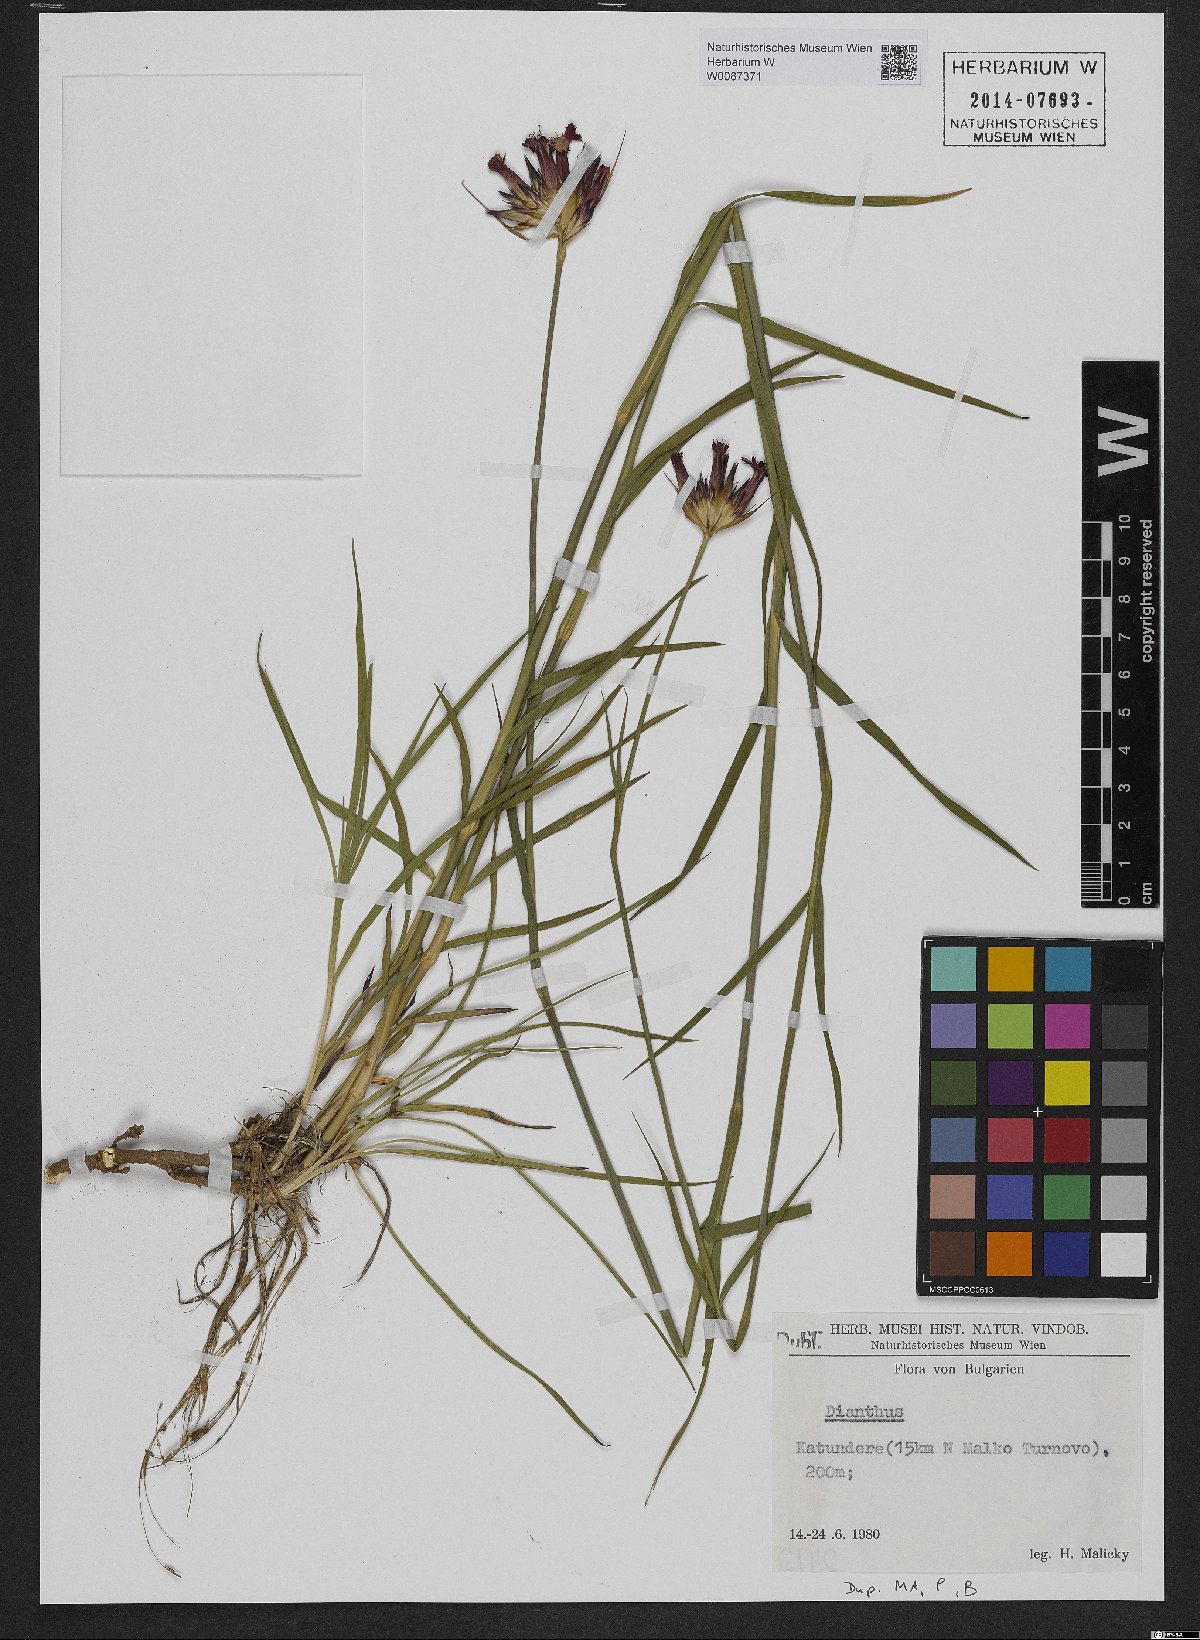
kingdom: Plantae
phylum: Tracheophyta
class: Magnoliopsida
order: Caryophyllales
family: Caryophyllaceae
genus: Dianthus
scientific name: Dianthus
